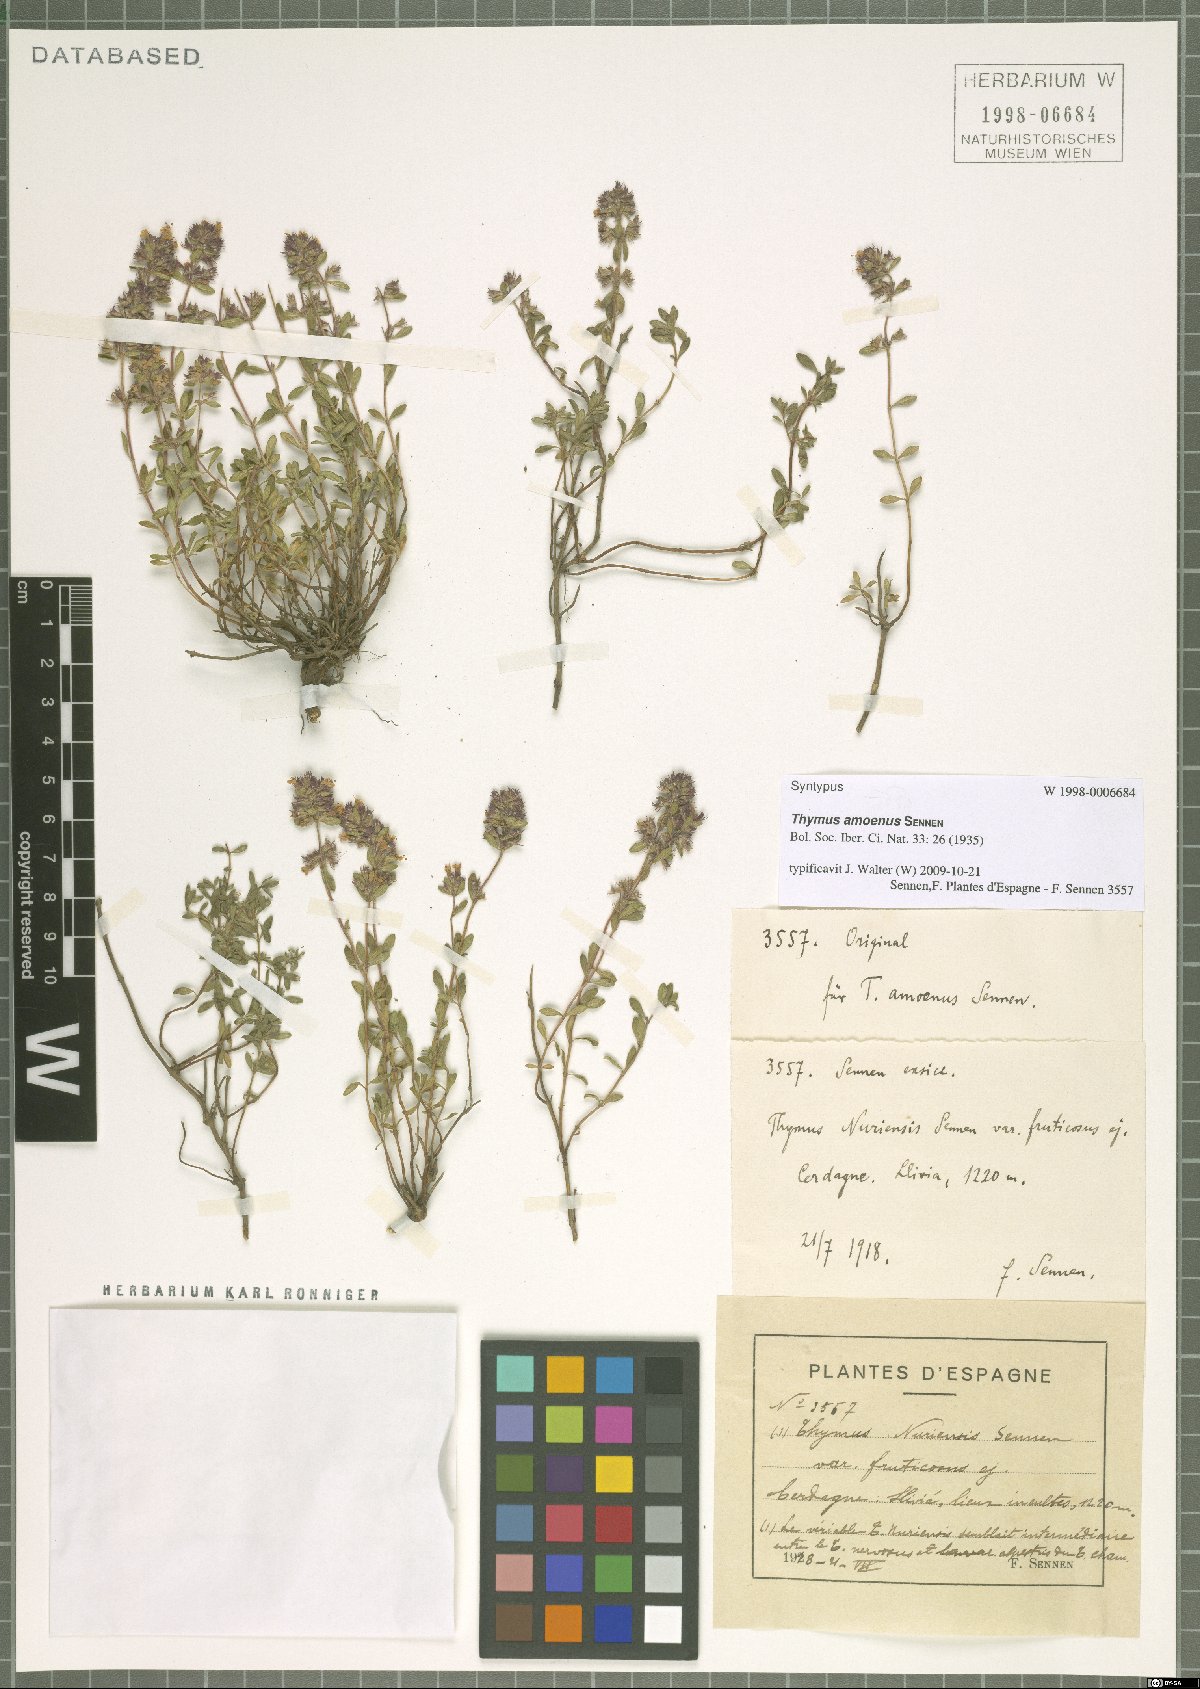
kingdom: Plantae
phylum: Tracheophyta
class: Magnoliopsida
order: Lamiales
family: Lamiaceae
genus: Thymus
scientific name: Thymus praecox
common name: Wild thyme
